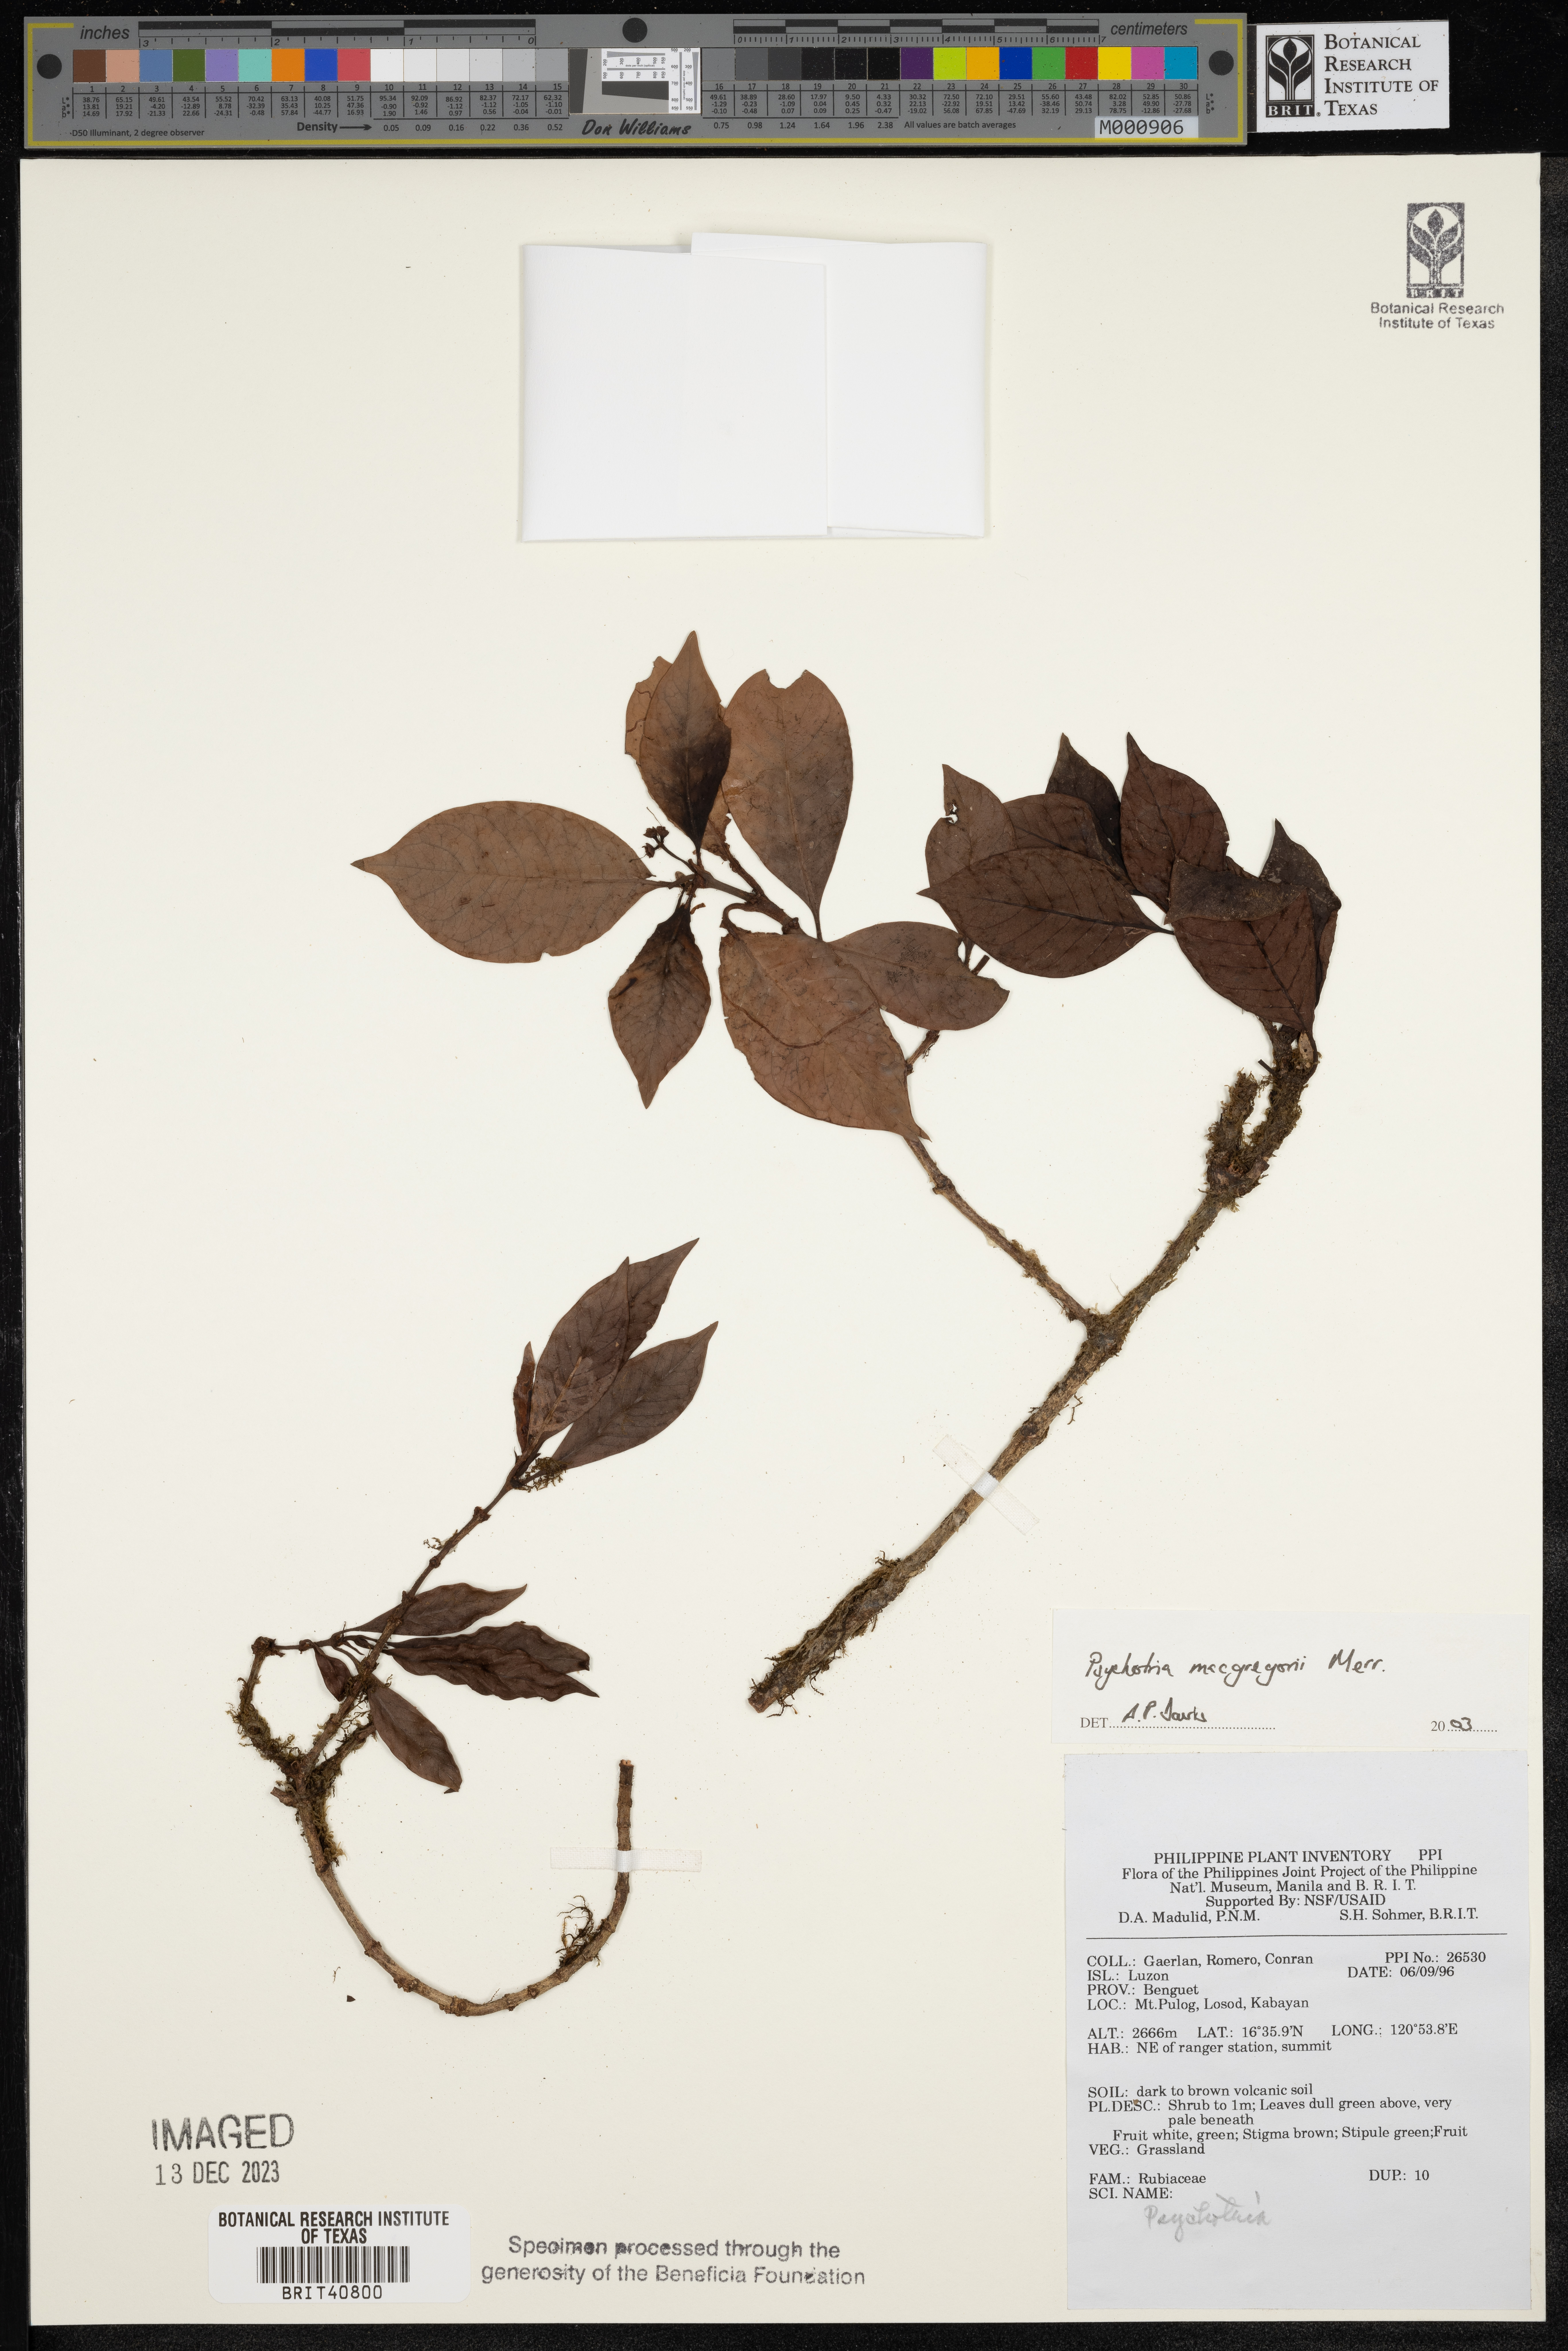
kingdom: Plantae
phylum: Tracheophyta
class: Magnoliopsida
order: Gentianales
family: Rubiaceae
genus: Psychotria
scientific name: Psychotria macgregorii
